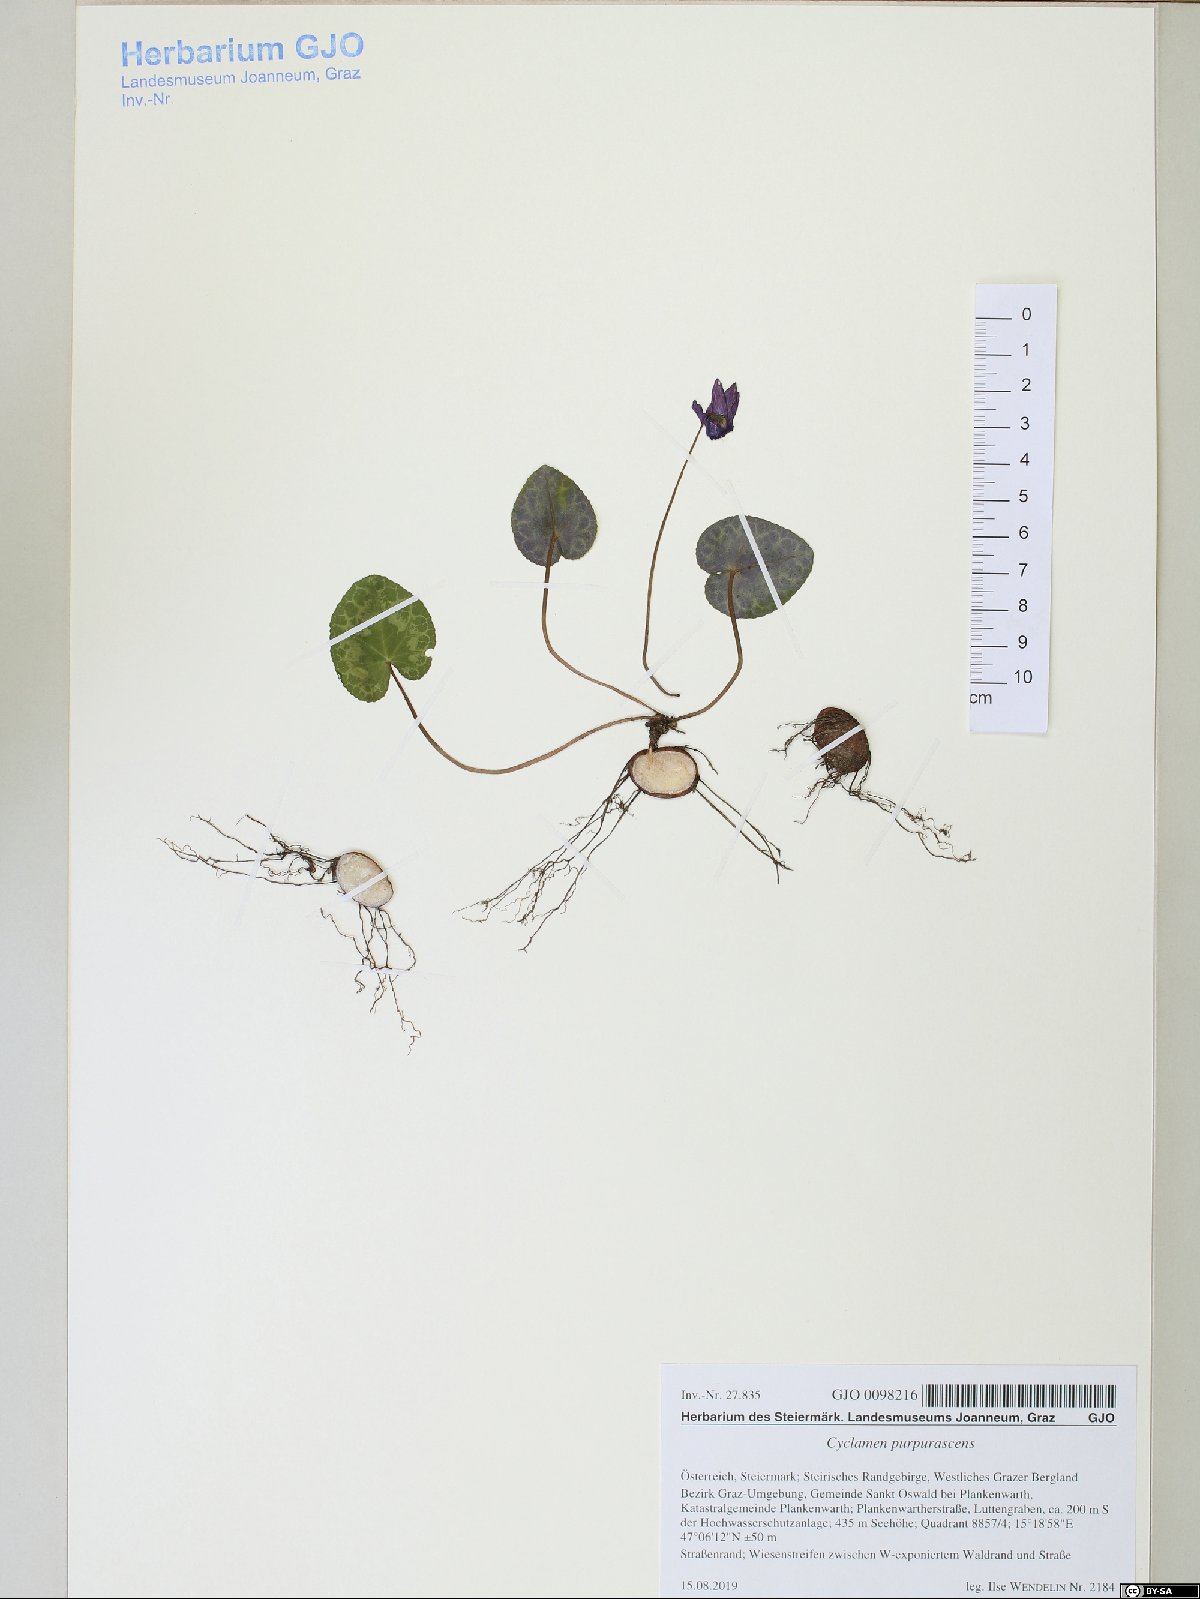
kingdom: Plantae
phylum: Tracheophyta
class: Magnoliopsida
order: Ericales
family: Primulaceae
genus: Cyclamen
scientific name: Cyclamen purpurascens
